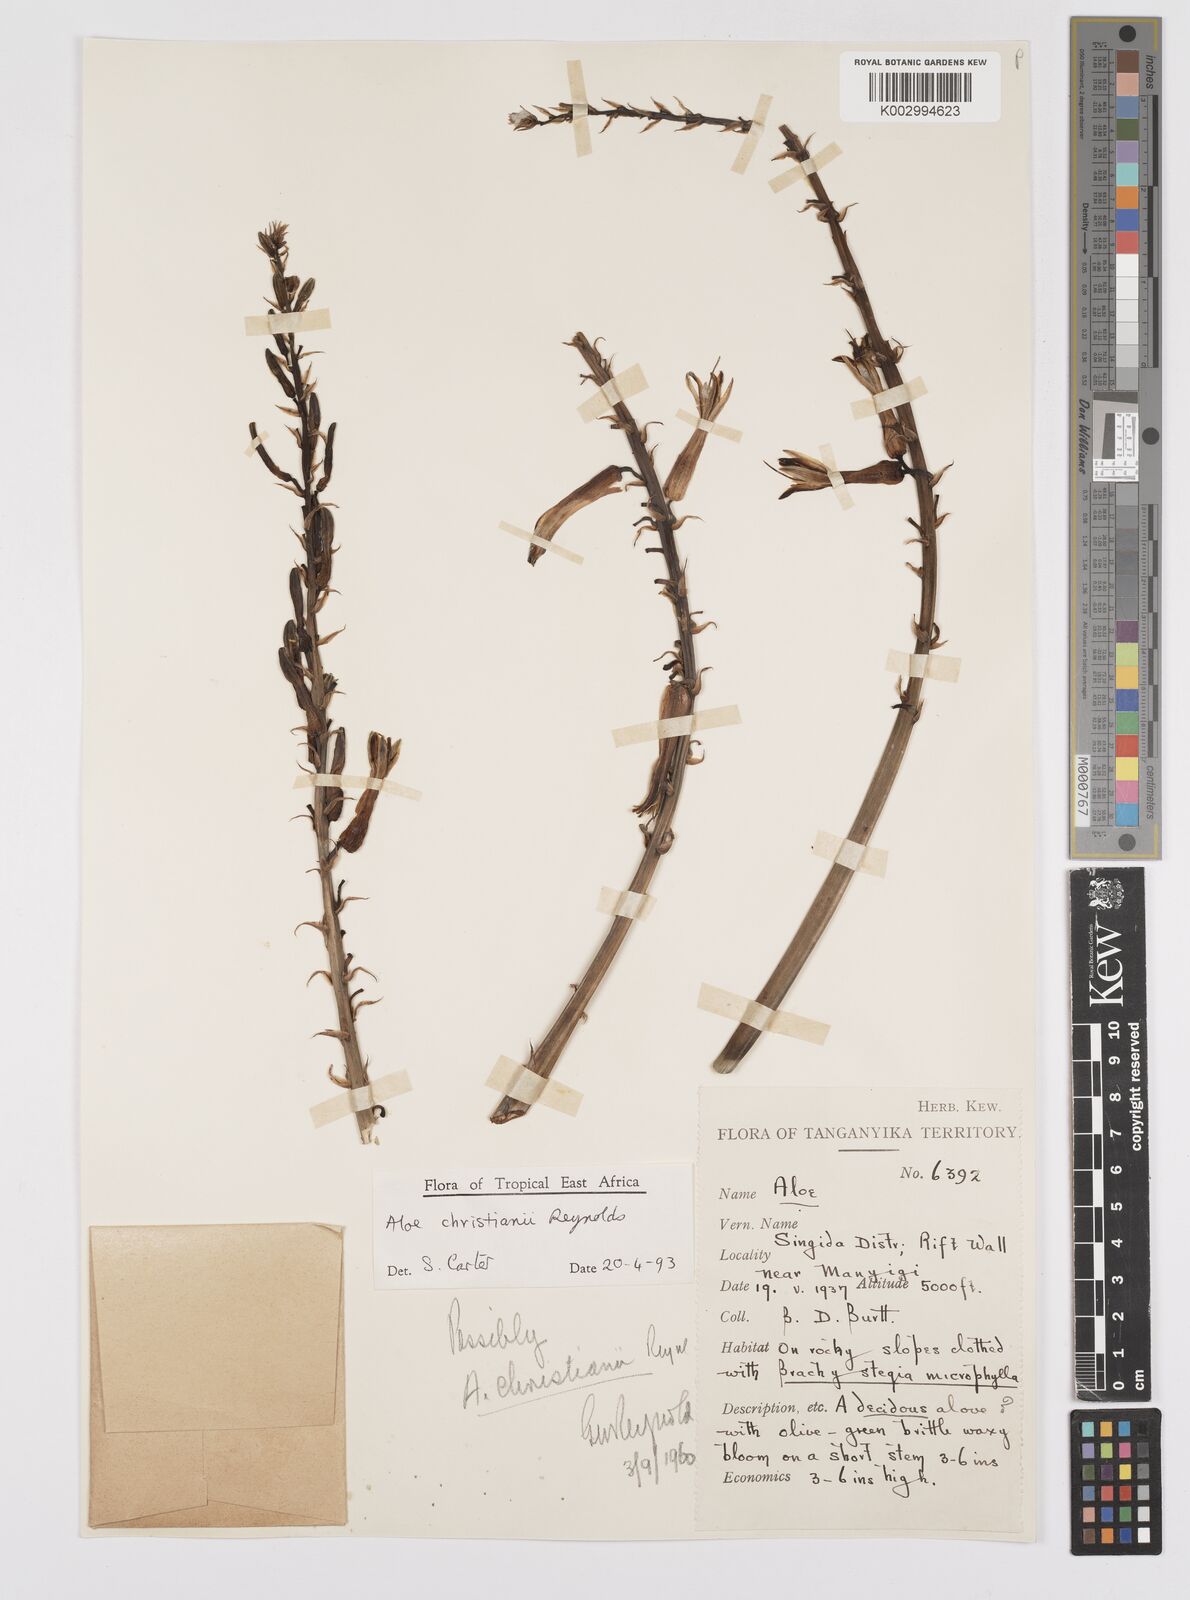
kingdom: Plantae
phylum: Tracheophyta
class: Liliopsida
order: Asparagales
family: Asphodelaceae
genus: Aloe
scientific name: Aloe christianii
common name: Basil christian's aloe
